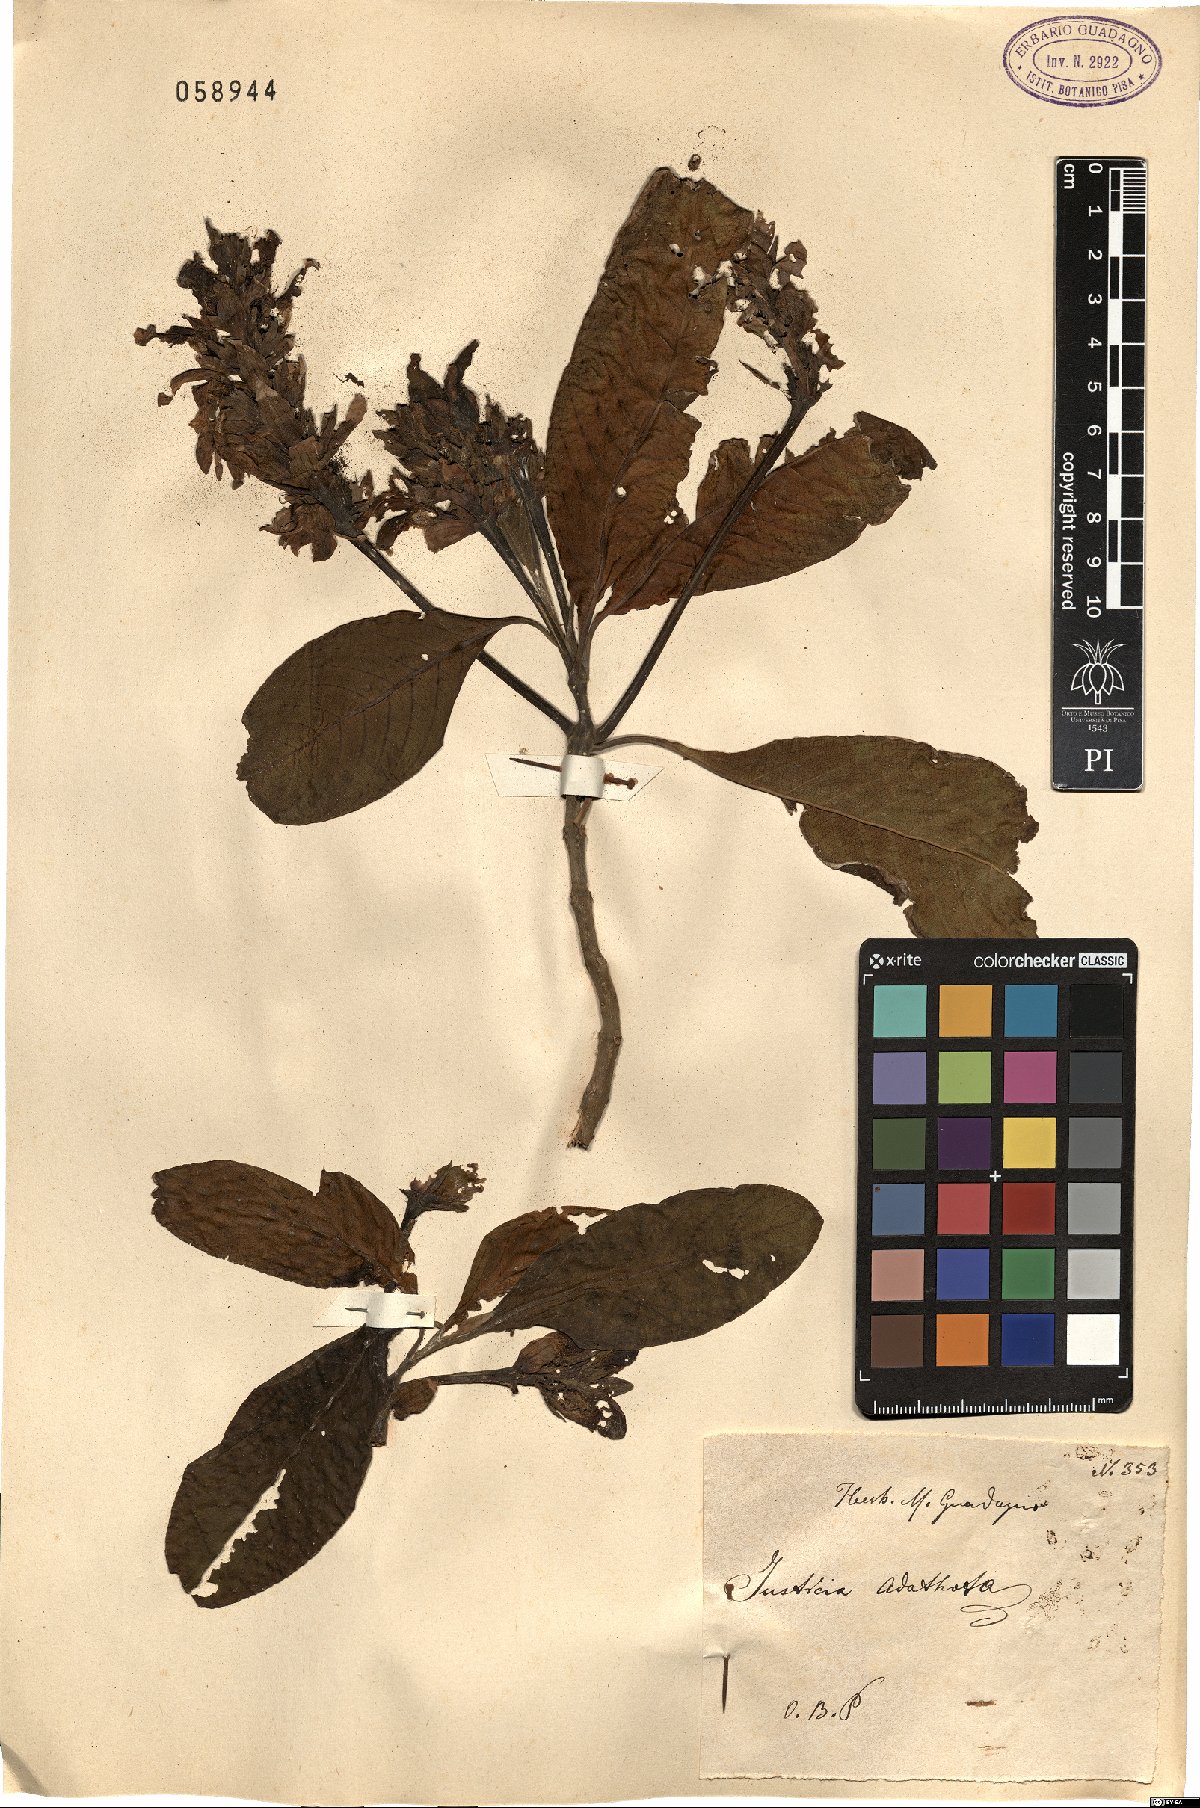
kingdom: Plantae
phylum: Tracheophyta
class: Magnoliopsida
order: Lamiales
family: Acanthaceae
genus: Ecbolium
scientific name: Ecbolium ligustrinum
